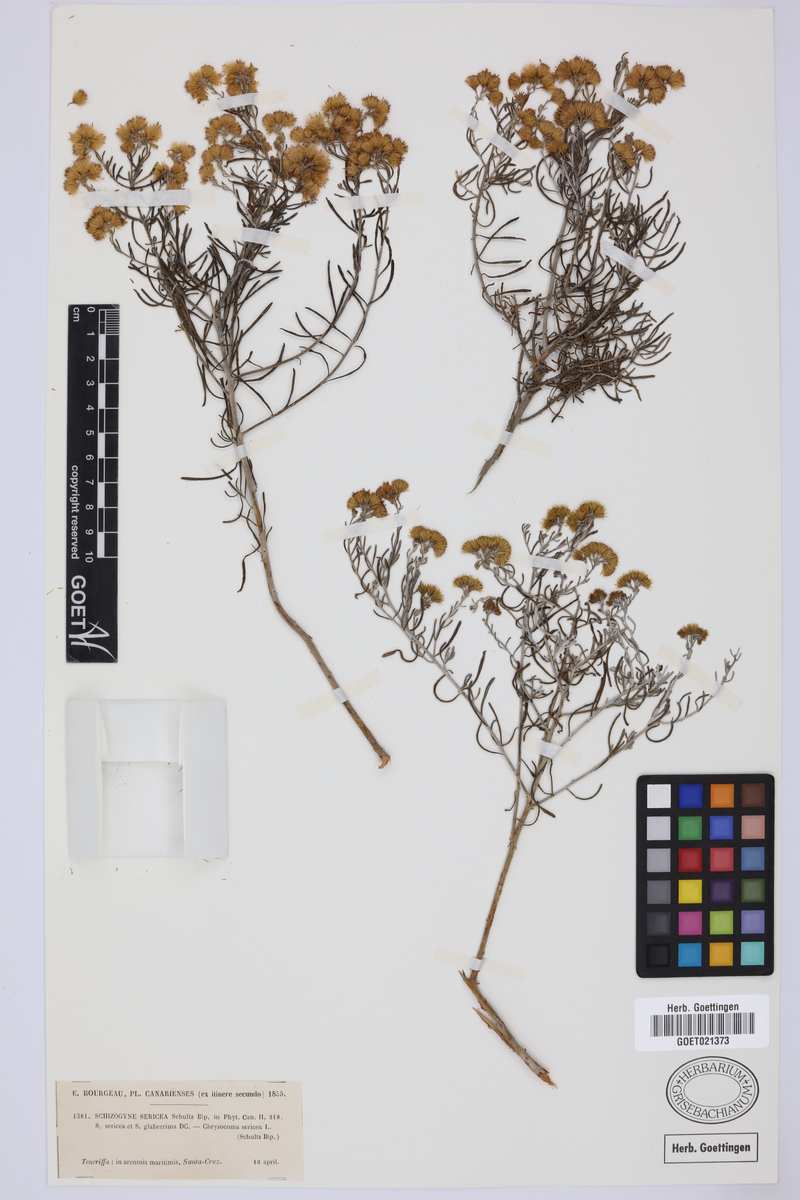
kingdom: Plantae
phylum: Tracheophyta
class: Magnoliopsida
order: Asterales
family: Asteraceae
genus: Schizogyne
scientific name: Schizogyne sericea
